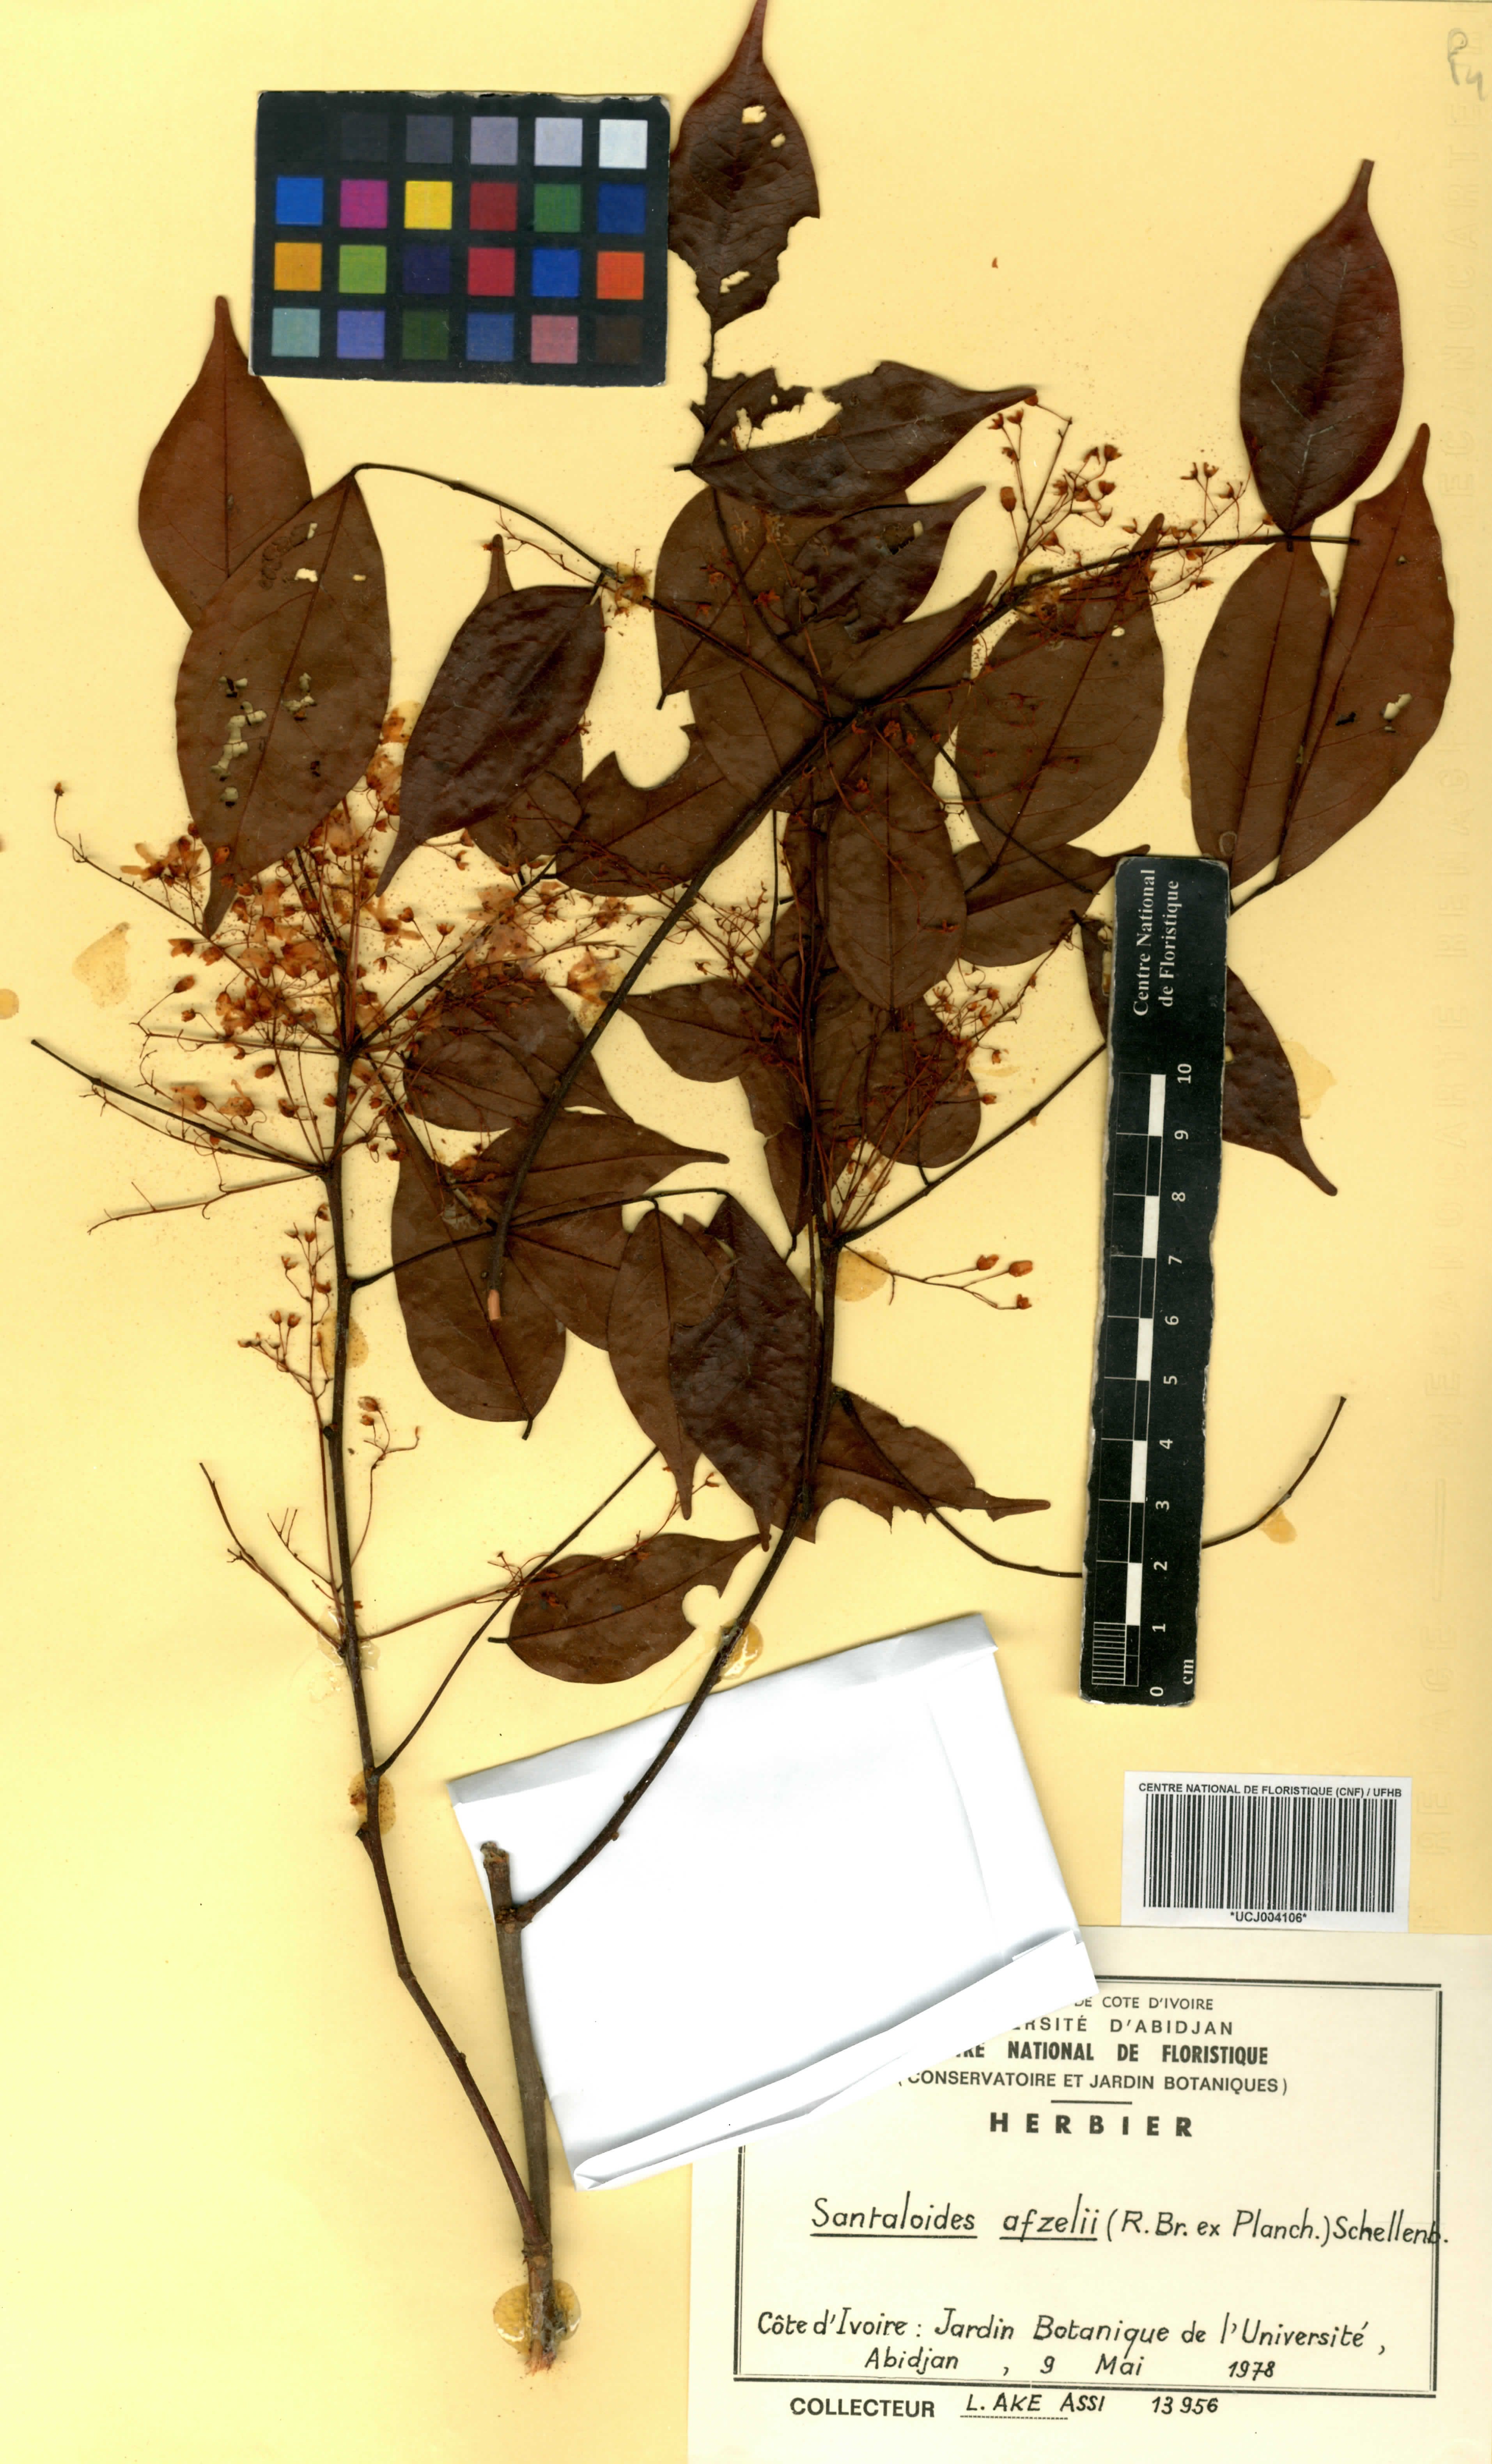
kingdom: Plantae
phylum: Tracheophyta
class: Magnoliopsida
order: Oxalidales
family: Connaraceae
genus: Rourea
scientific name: Rourea minor
